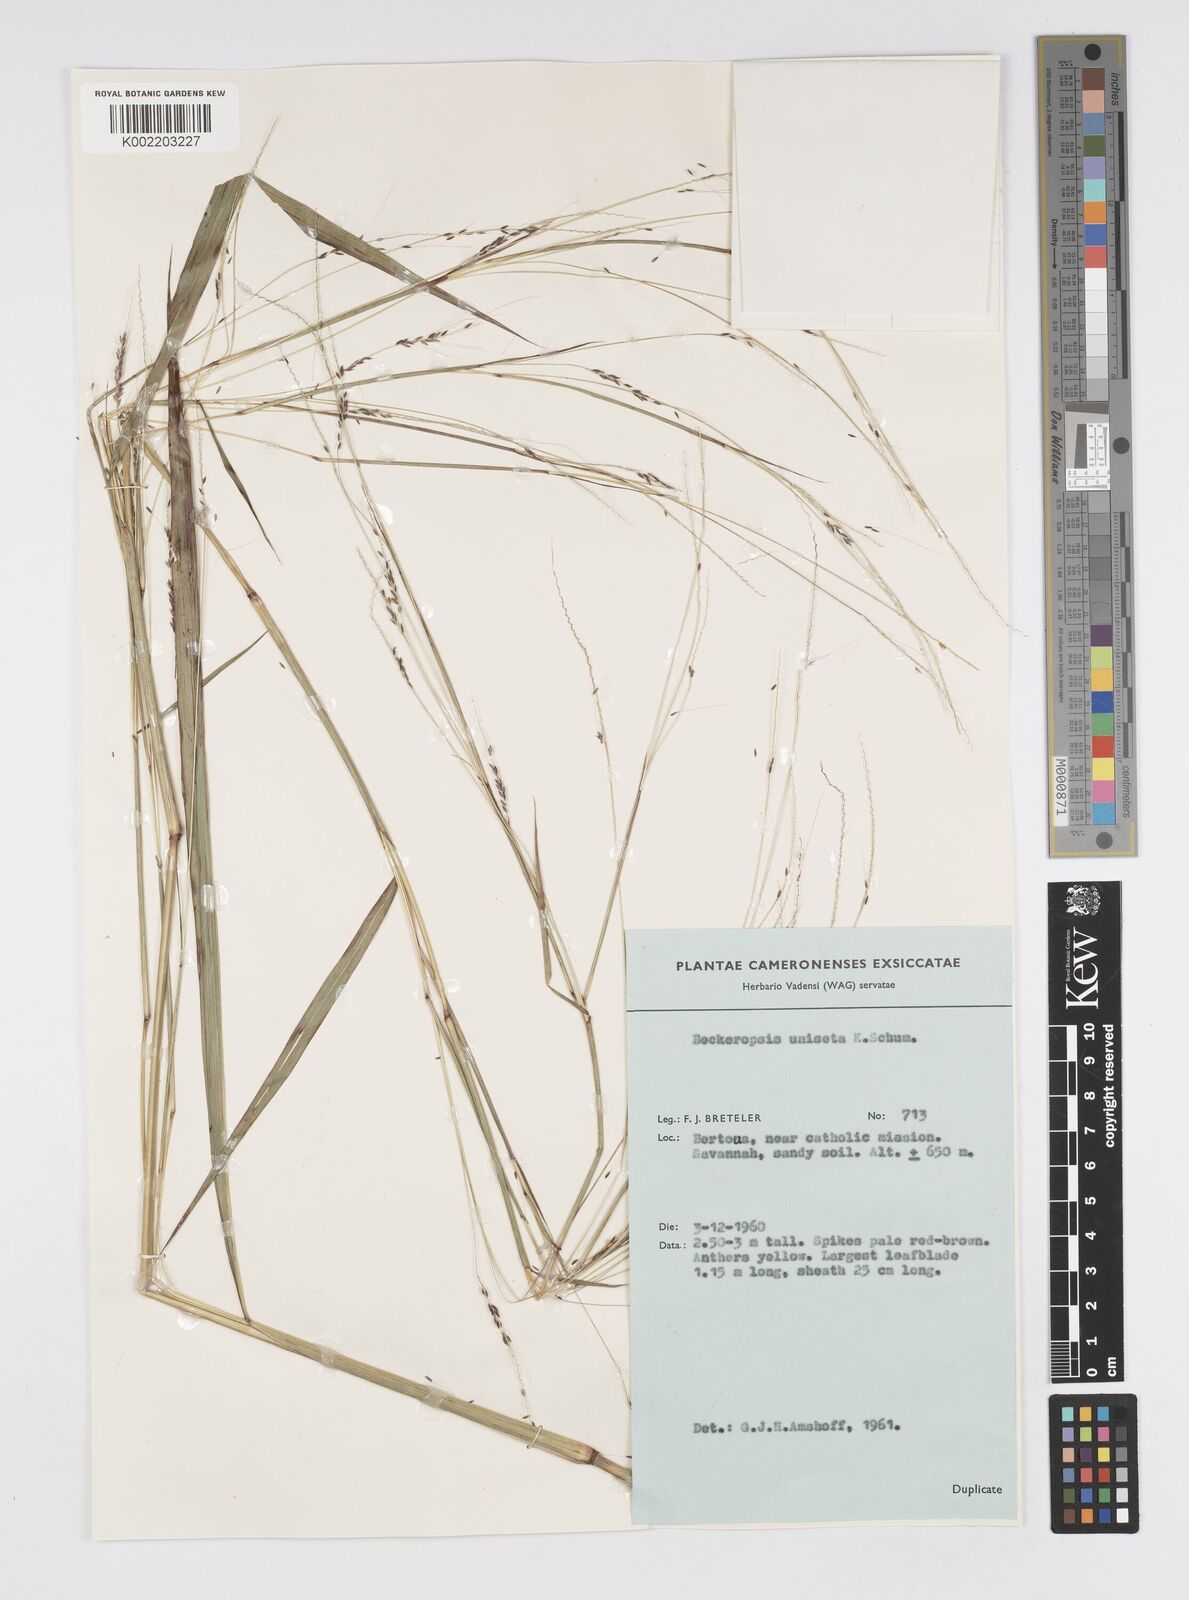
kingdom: Plantae
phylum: Tracheophyta
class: Liliopsida
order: Poales
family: Poaceae
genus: Cenchrus
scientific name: Cenchrus unisetus
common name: Natal grass
